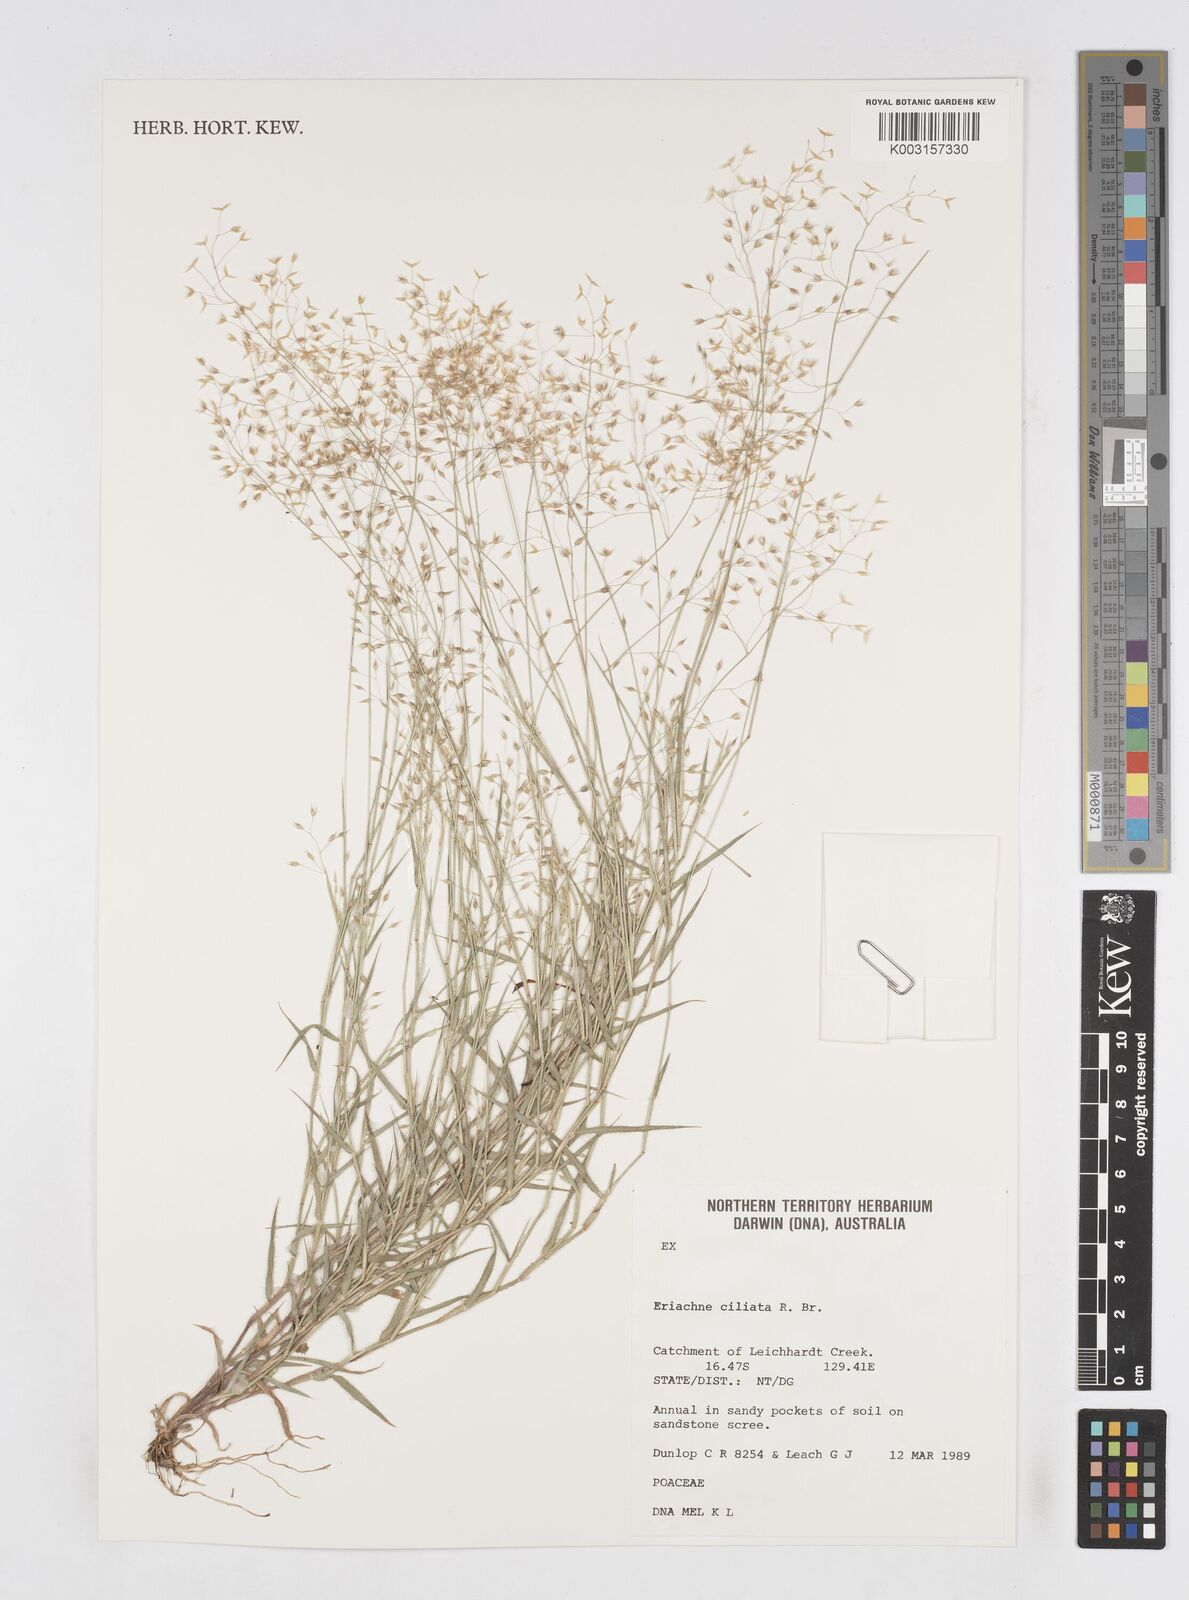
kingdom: Plantae
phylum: Tracheophyta
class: Liliopsida
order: Poales
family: Poaceae
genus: Eriachne
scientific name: Eriachne ciliata
